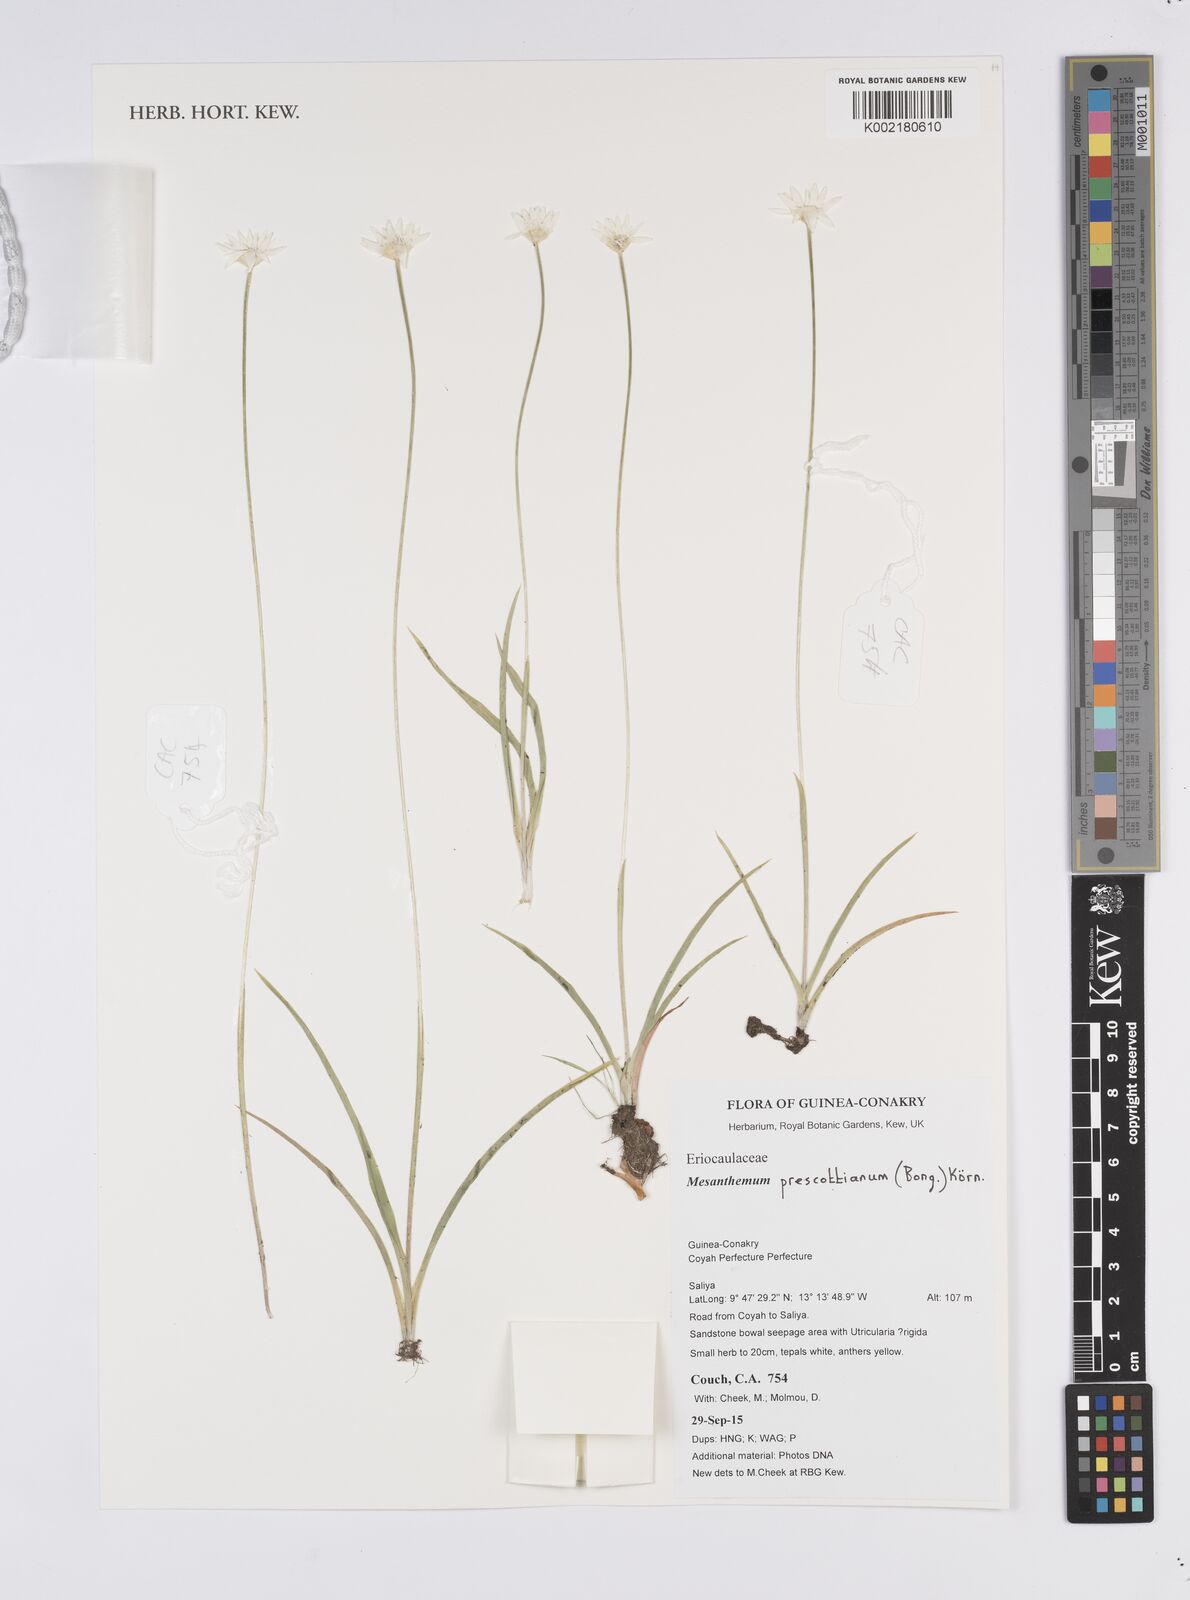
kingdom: Plantae
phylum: Tracheophyta
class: Liliopsida
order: Poales
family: Eriocaulaceae
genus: Mesanthemum
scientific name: Mesanthemum prescottianum
